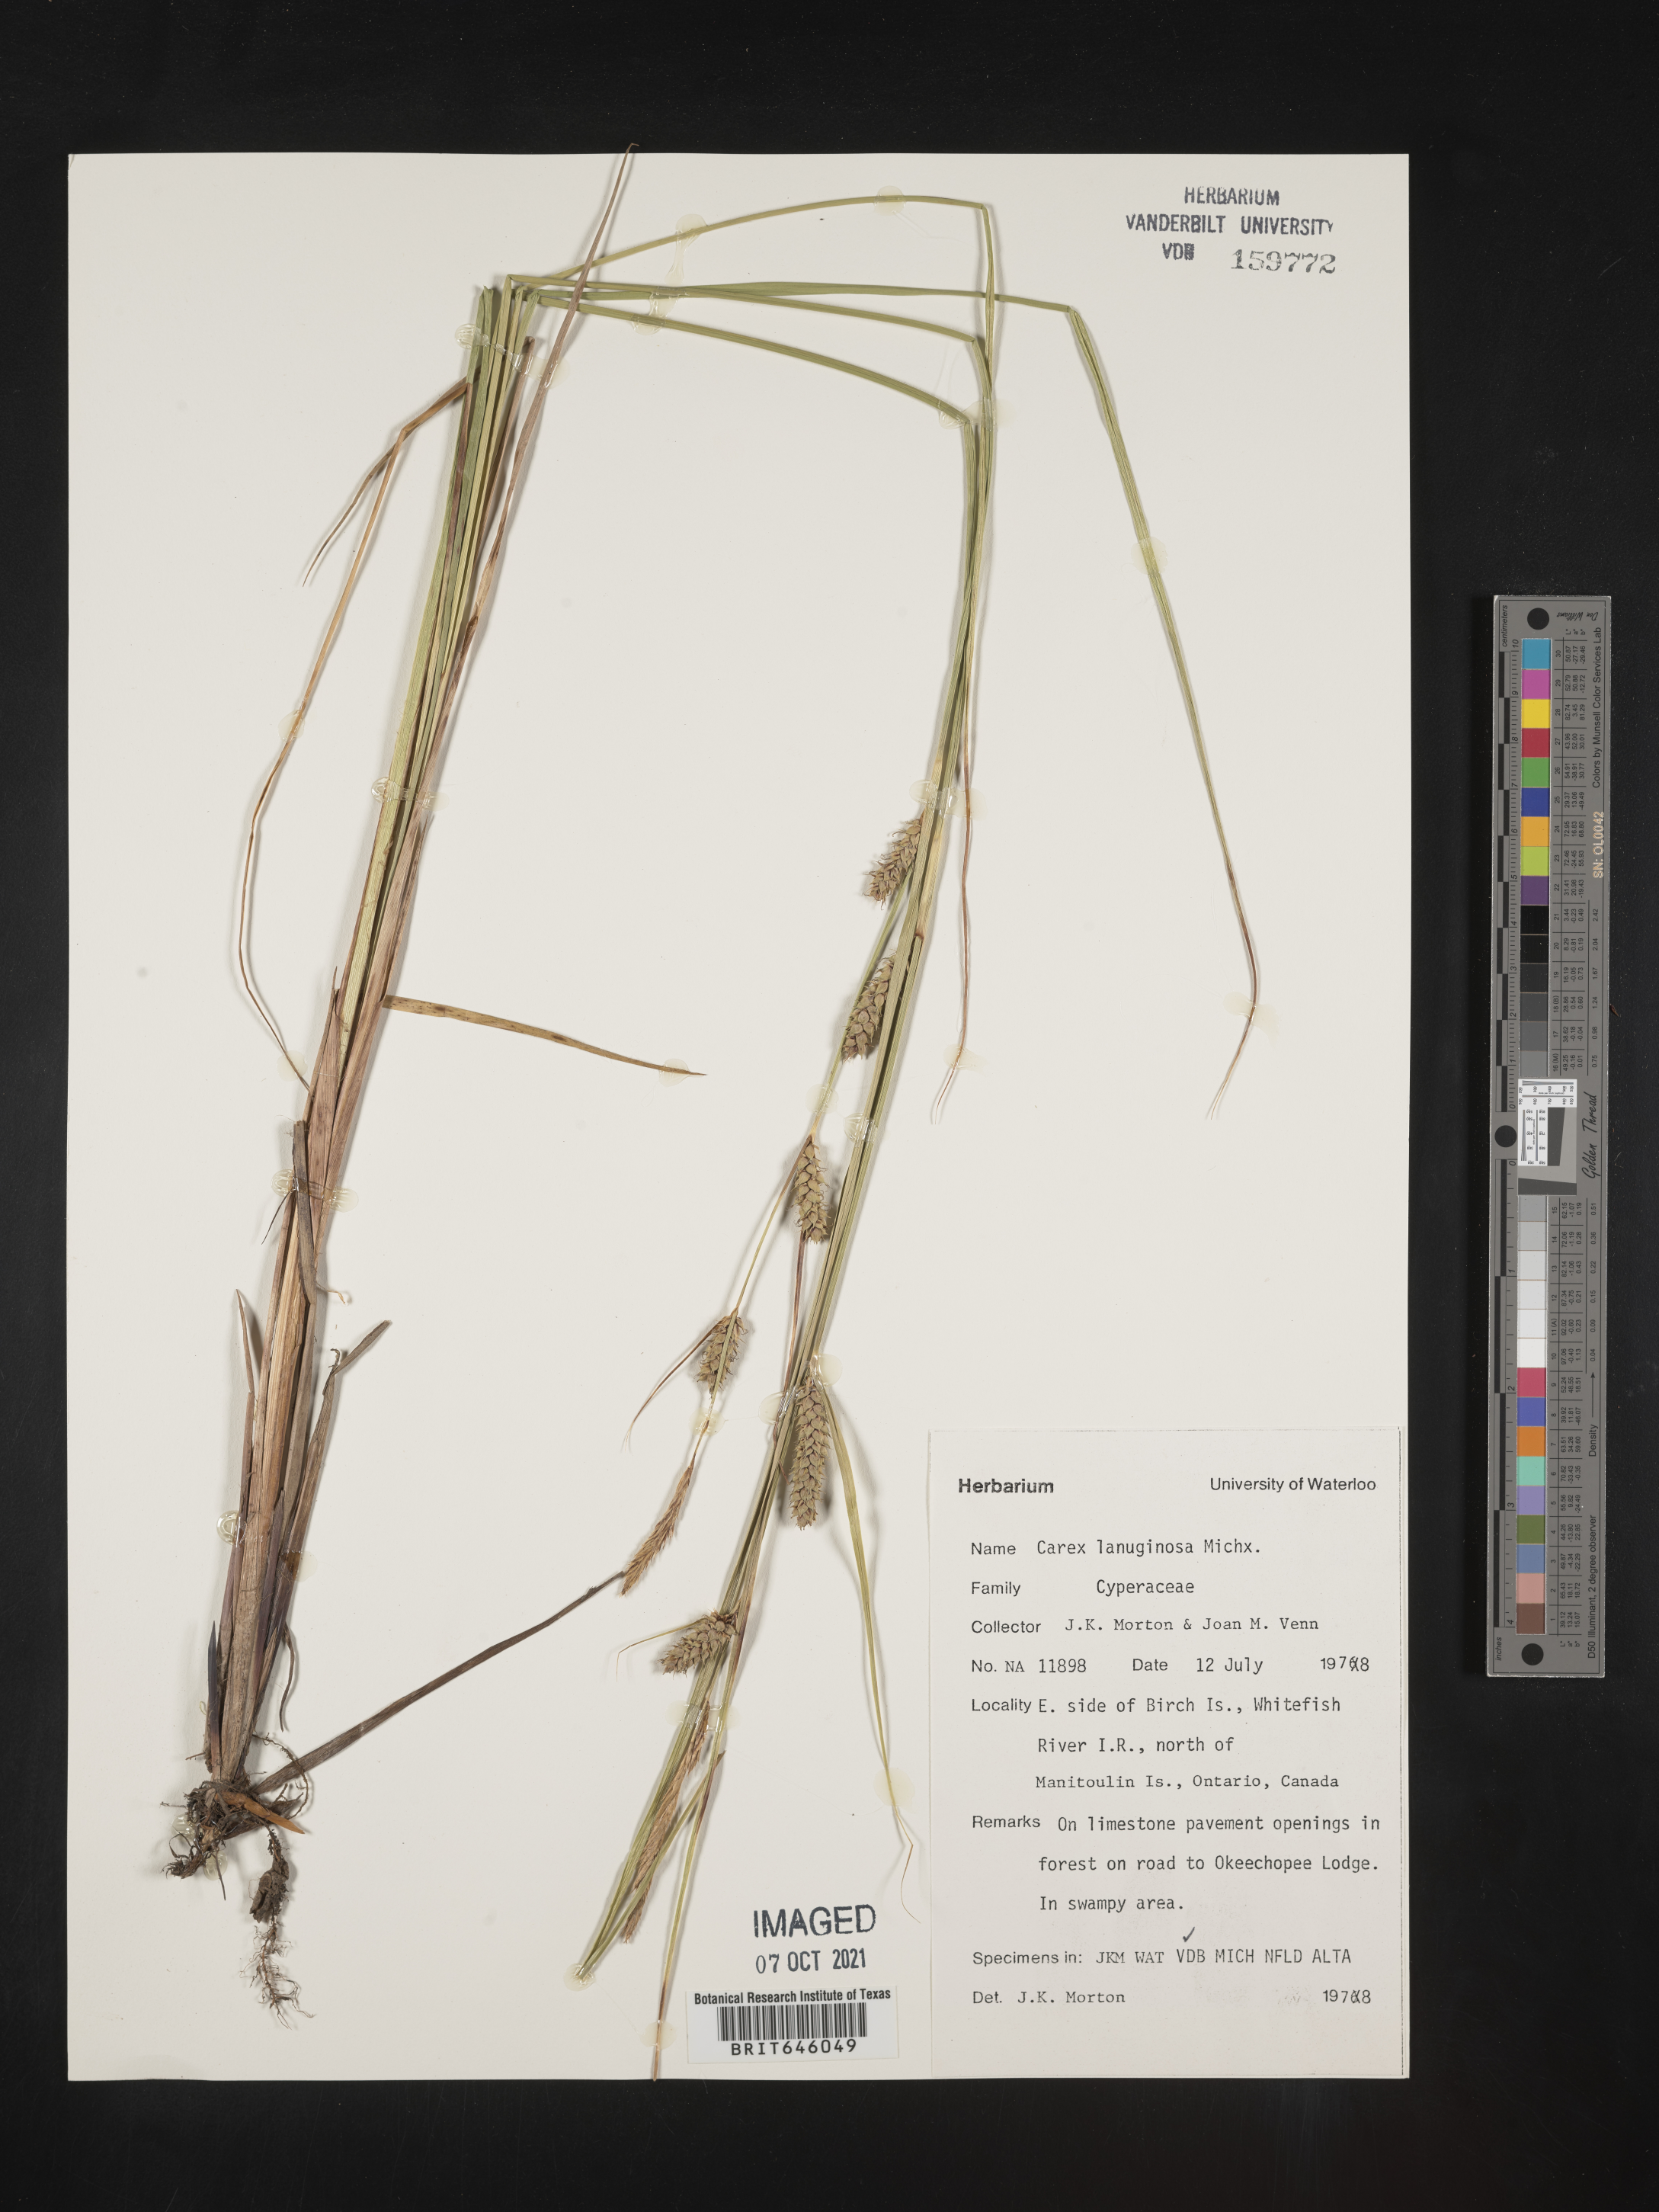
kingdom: Plantae
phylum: Tracheophyta
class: Liliopsida
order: Poales
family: Cyperaceae
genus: Carex
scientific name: Carex lasiocarpa
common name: Slender sedge
